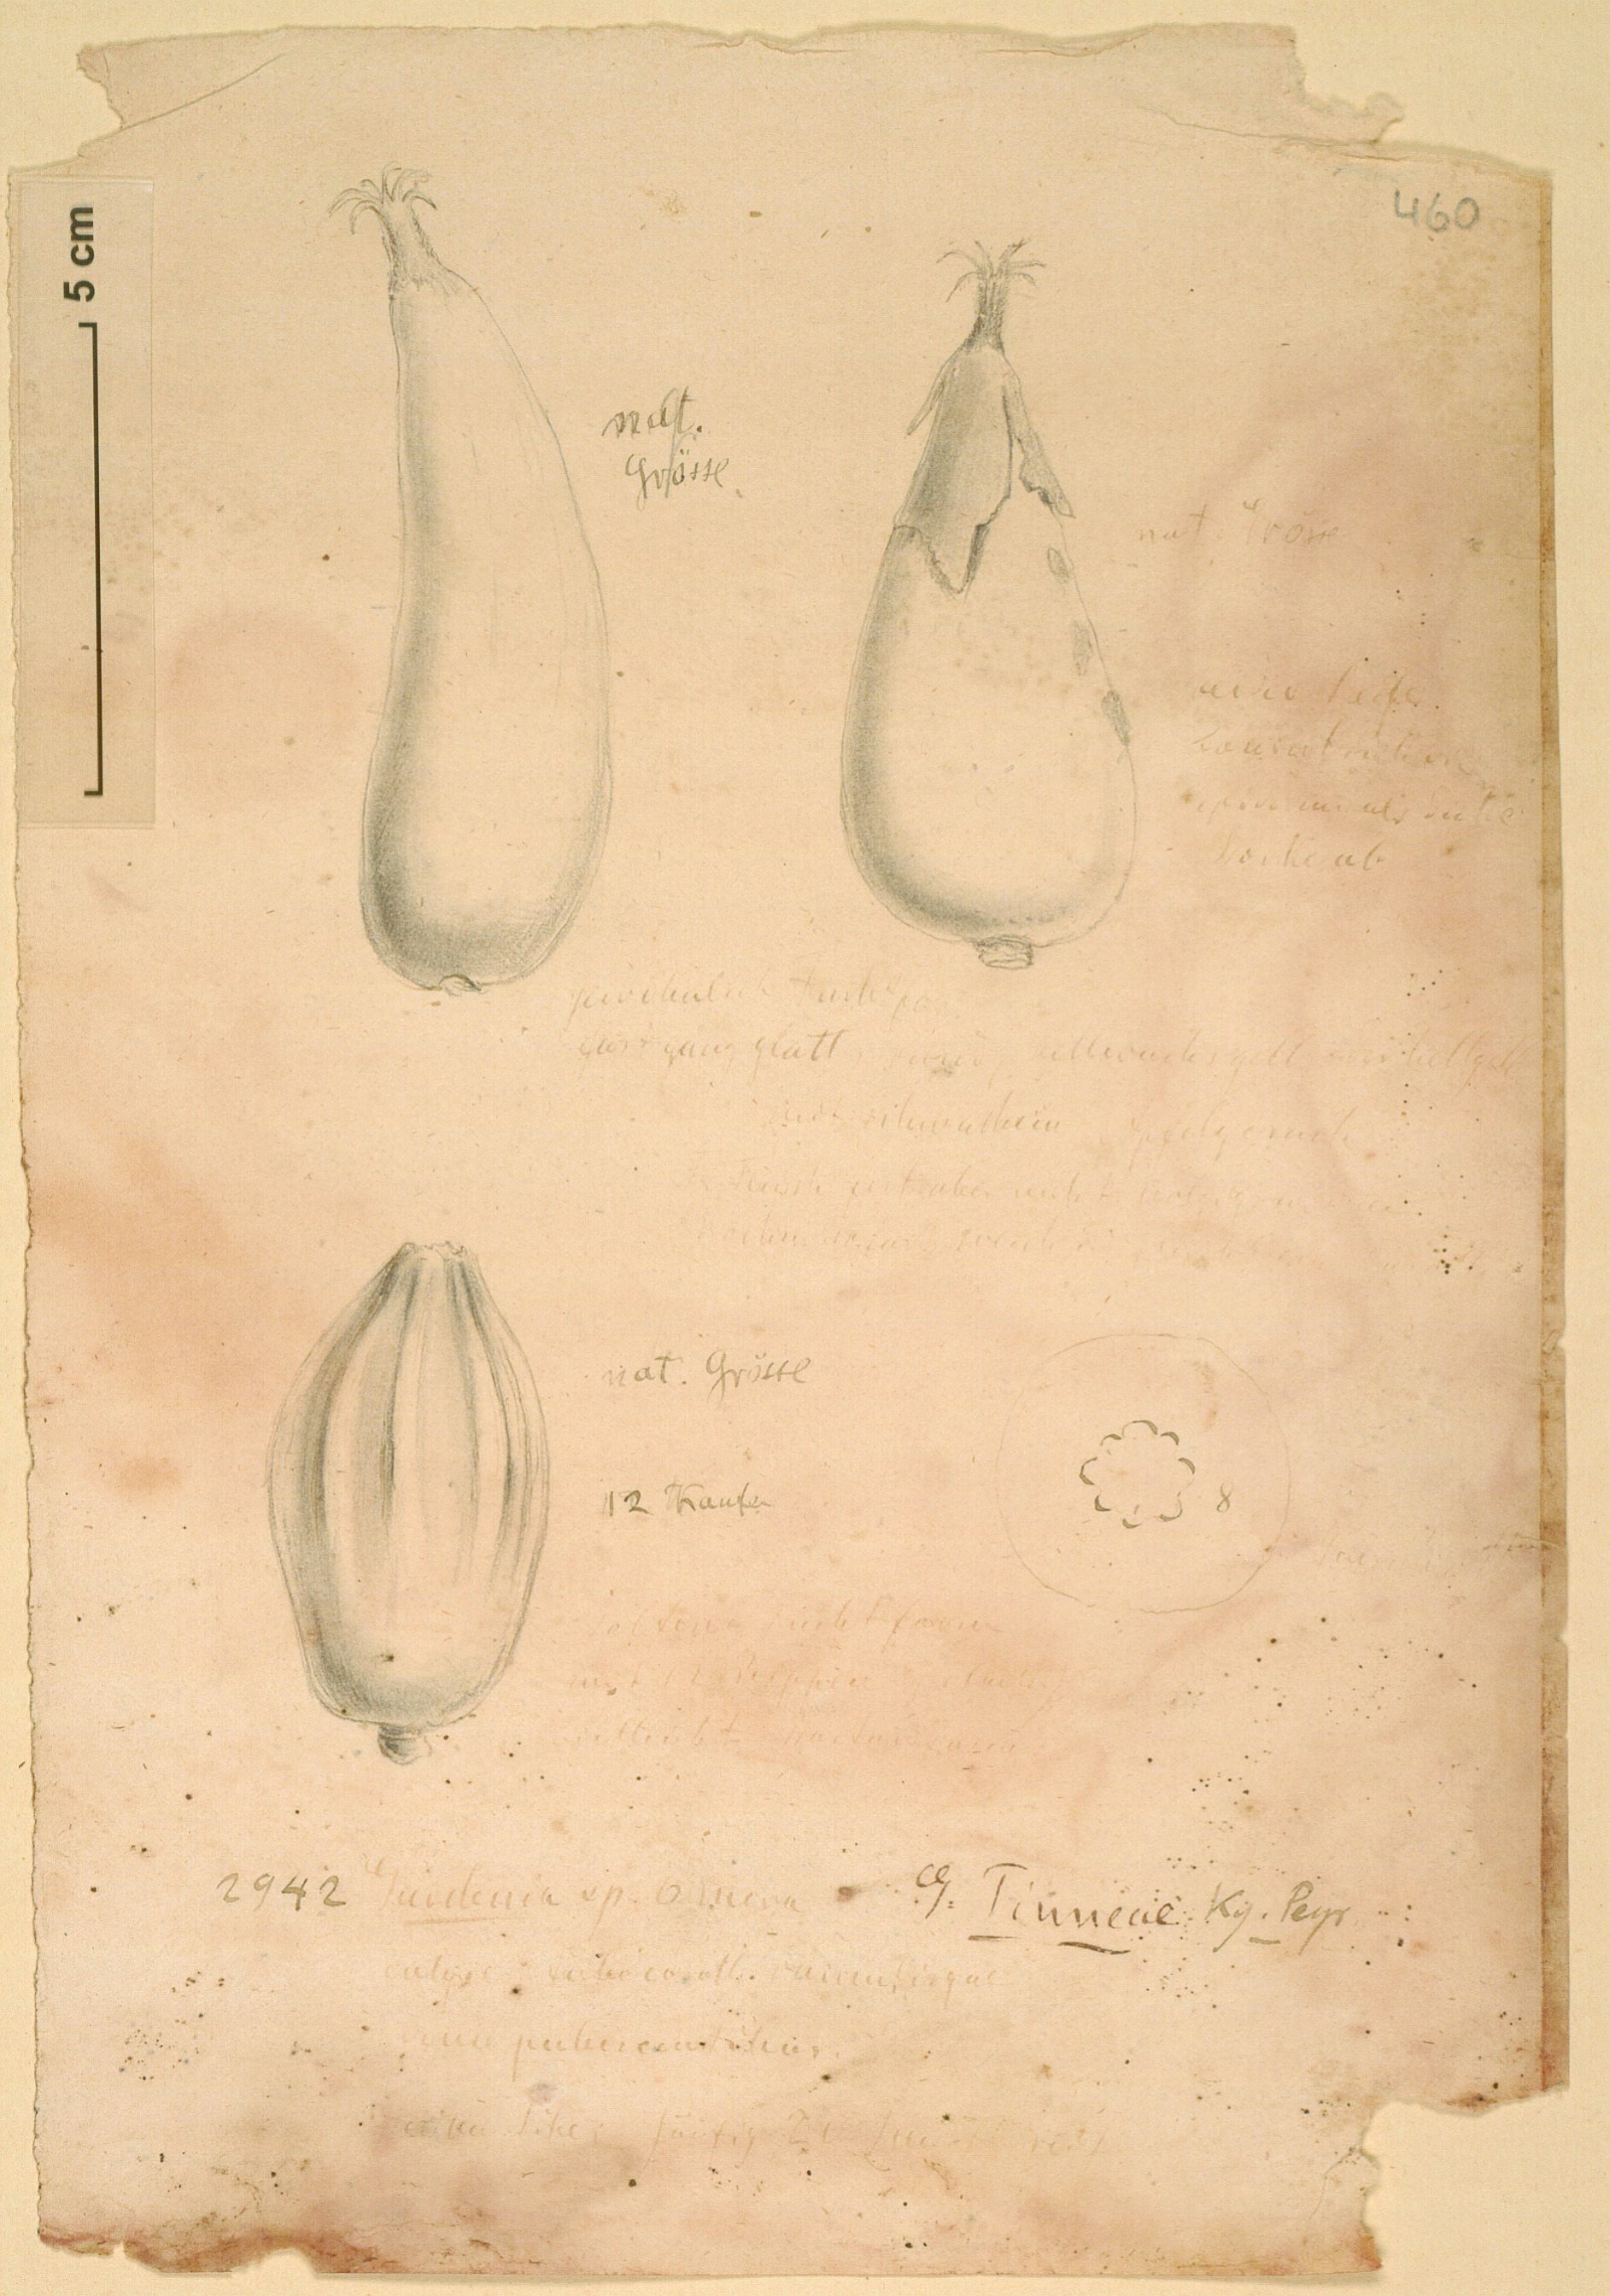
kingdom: Plantae
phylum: Tracheophyta
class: Magnoliopsida
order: Gentianales
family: Rubiaceae
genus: Gardenia
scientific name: Gardenia tinneae
